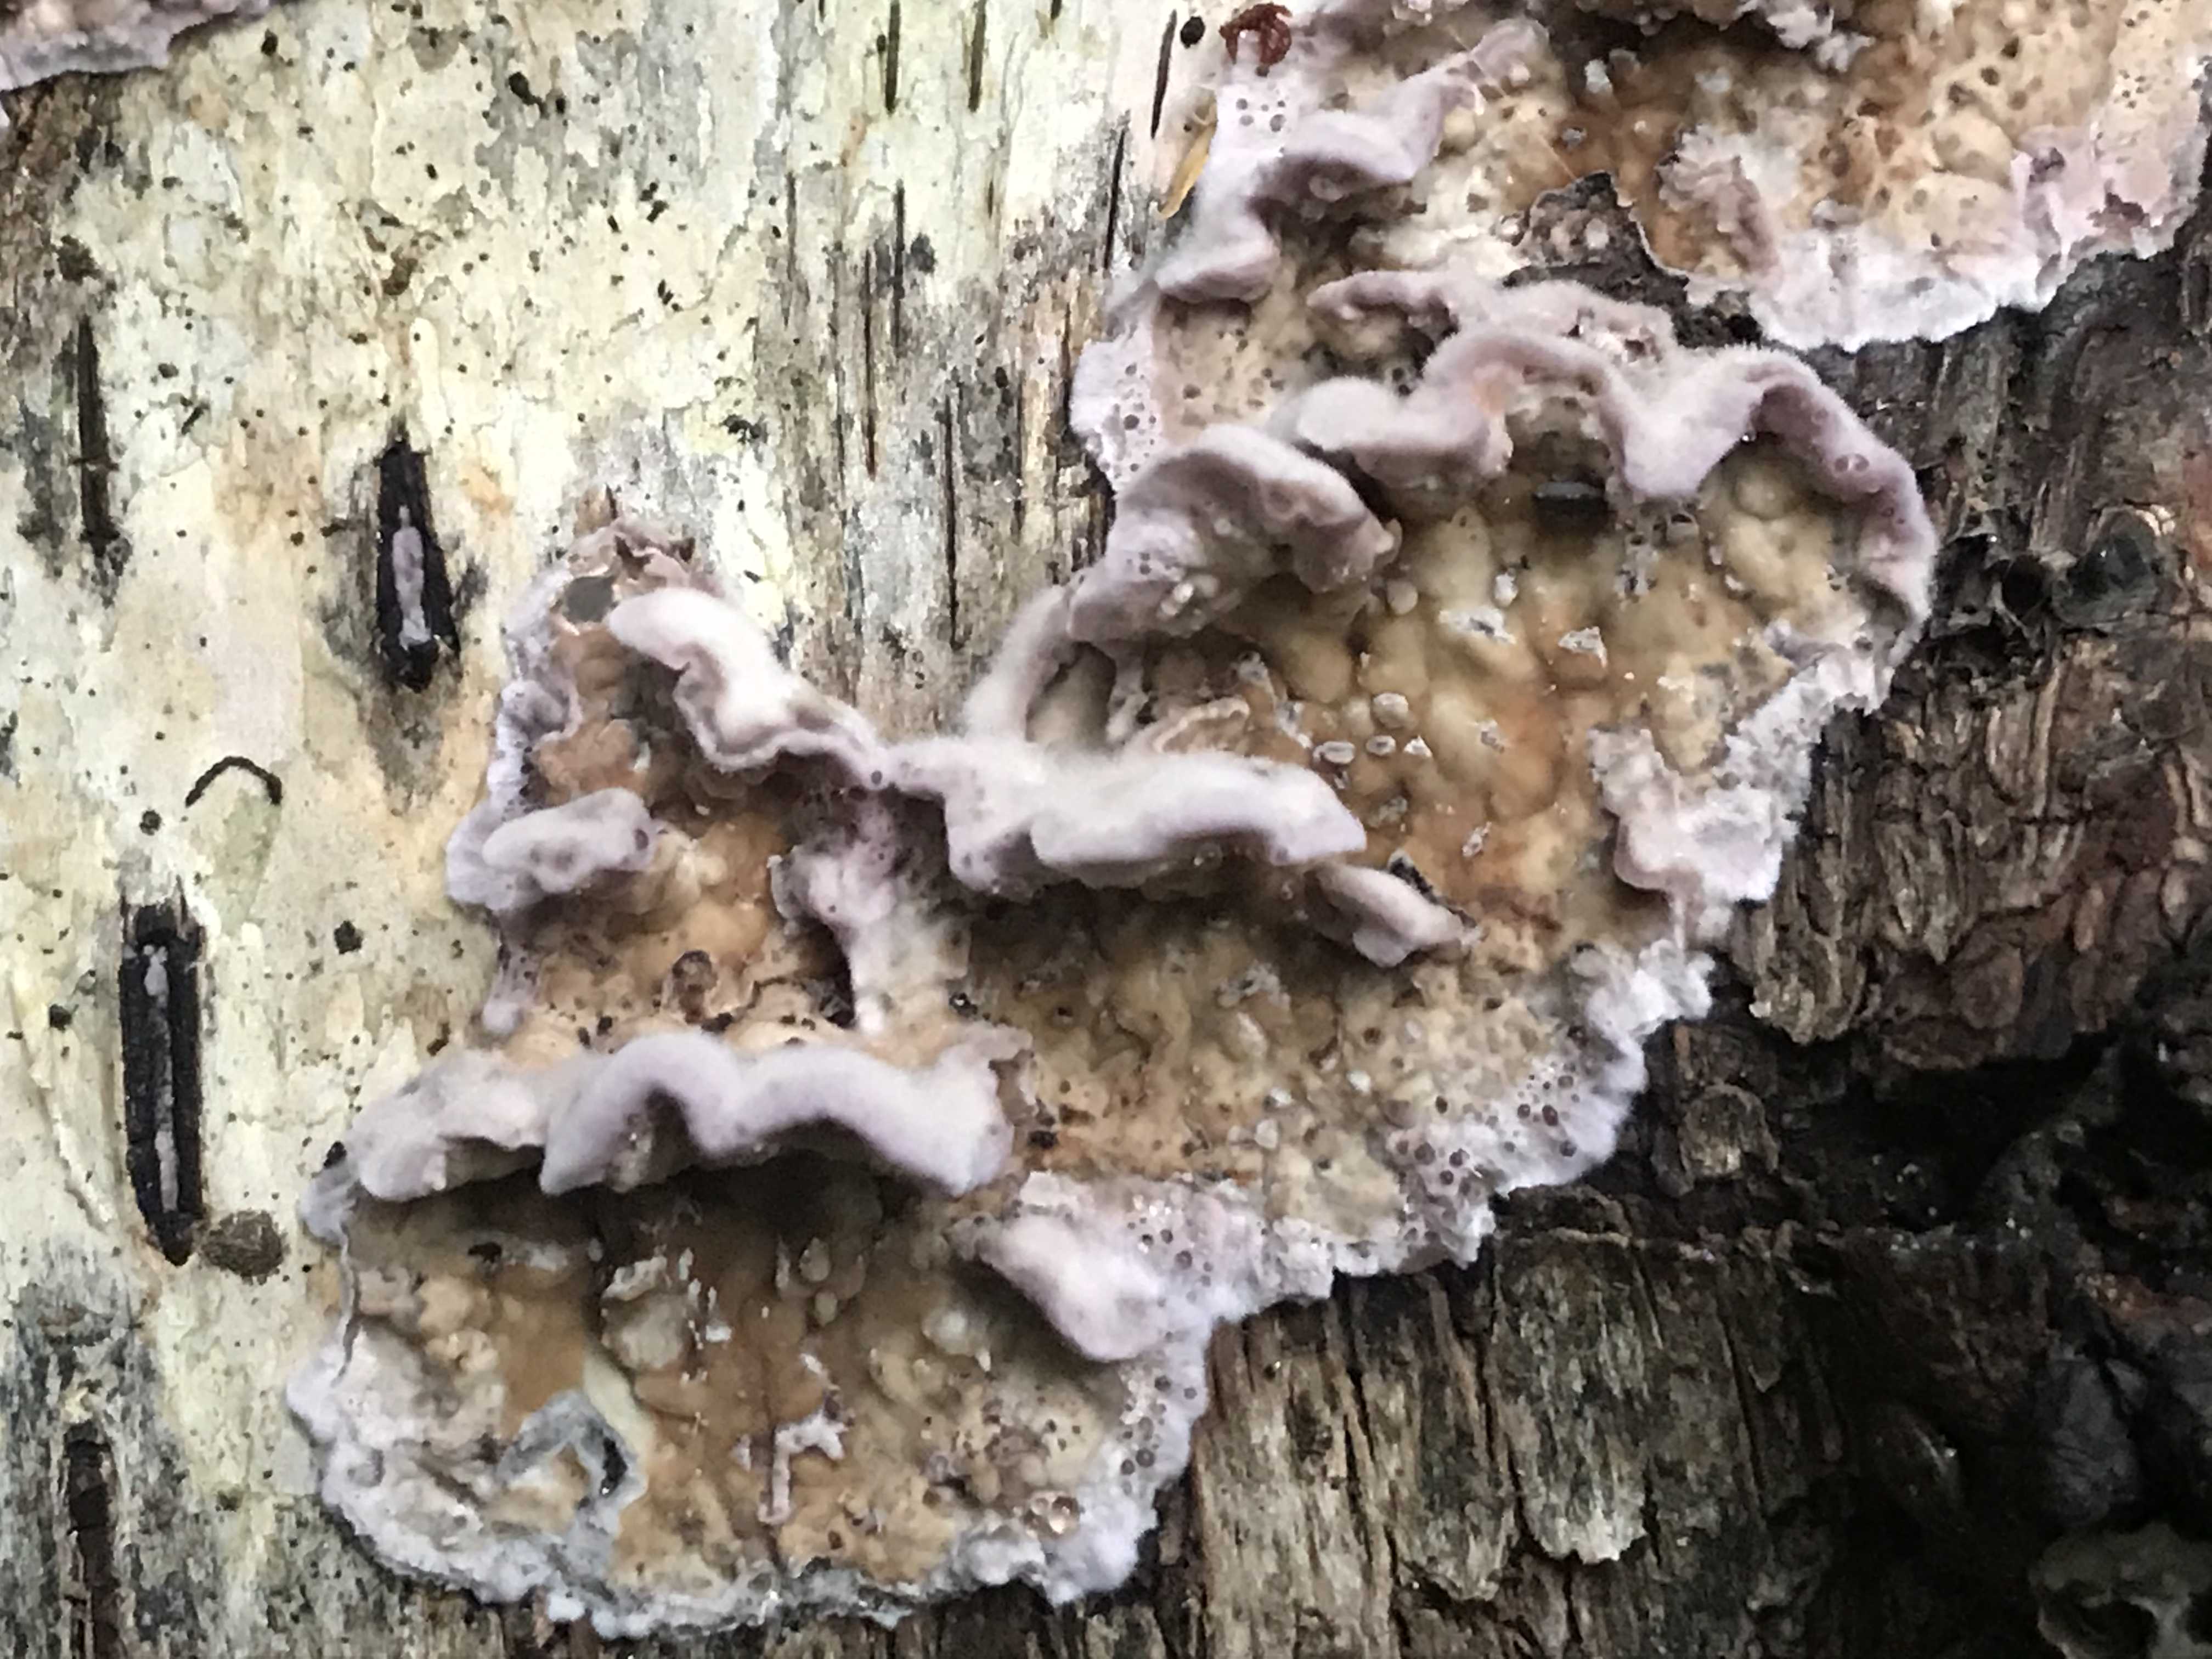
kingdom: Fungi
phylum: Basidiomycota
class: Agaricomycetes
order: Agaricales
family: Cyphellaceae
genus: Chondrostereum
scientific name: Chondrostereum purpureum
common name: purpurlædersvamp
